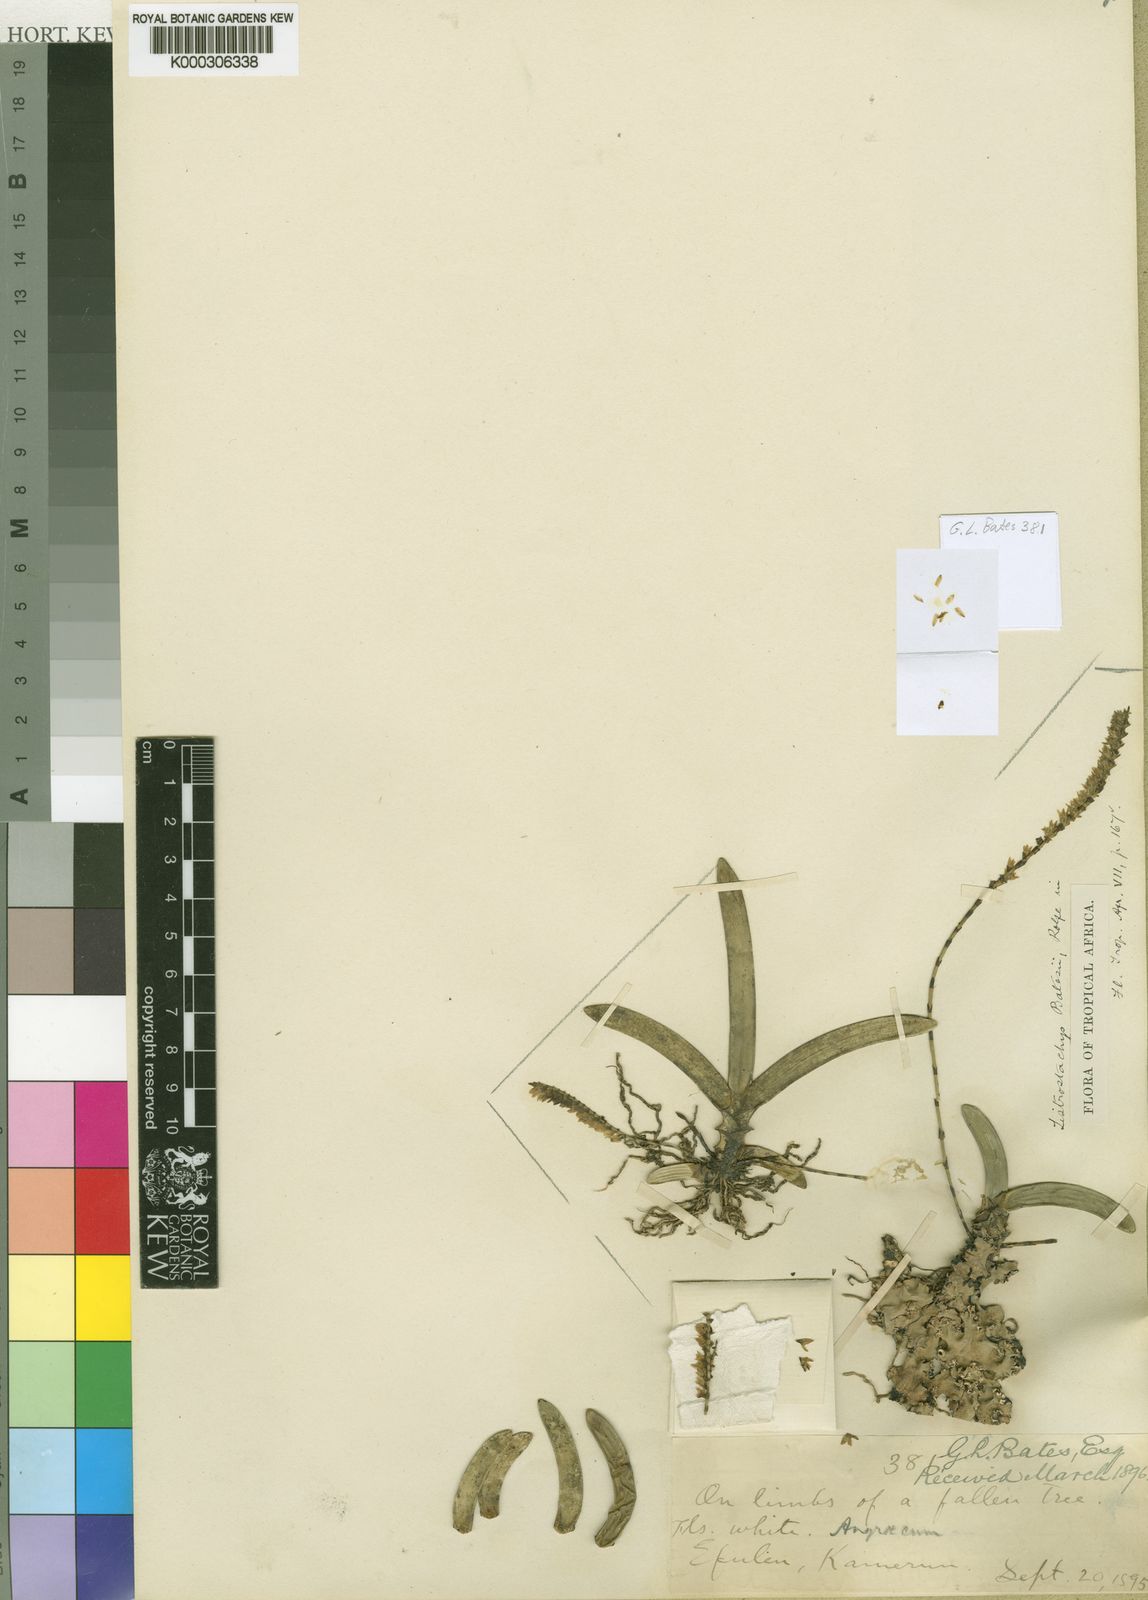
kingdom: Plantae
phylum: Tracheophyta
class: Liliopsida
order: Asparagales
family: Orchidaceae
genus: Bolusiella
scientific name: Bolusiella zenkeri
